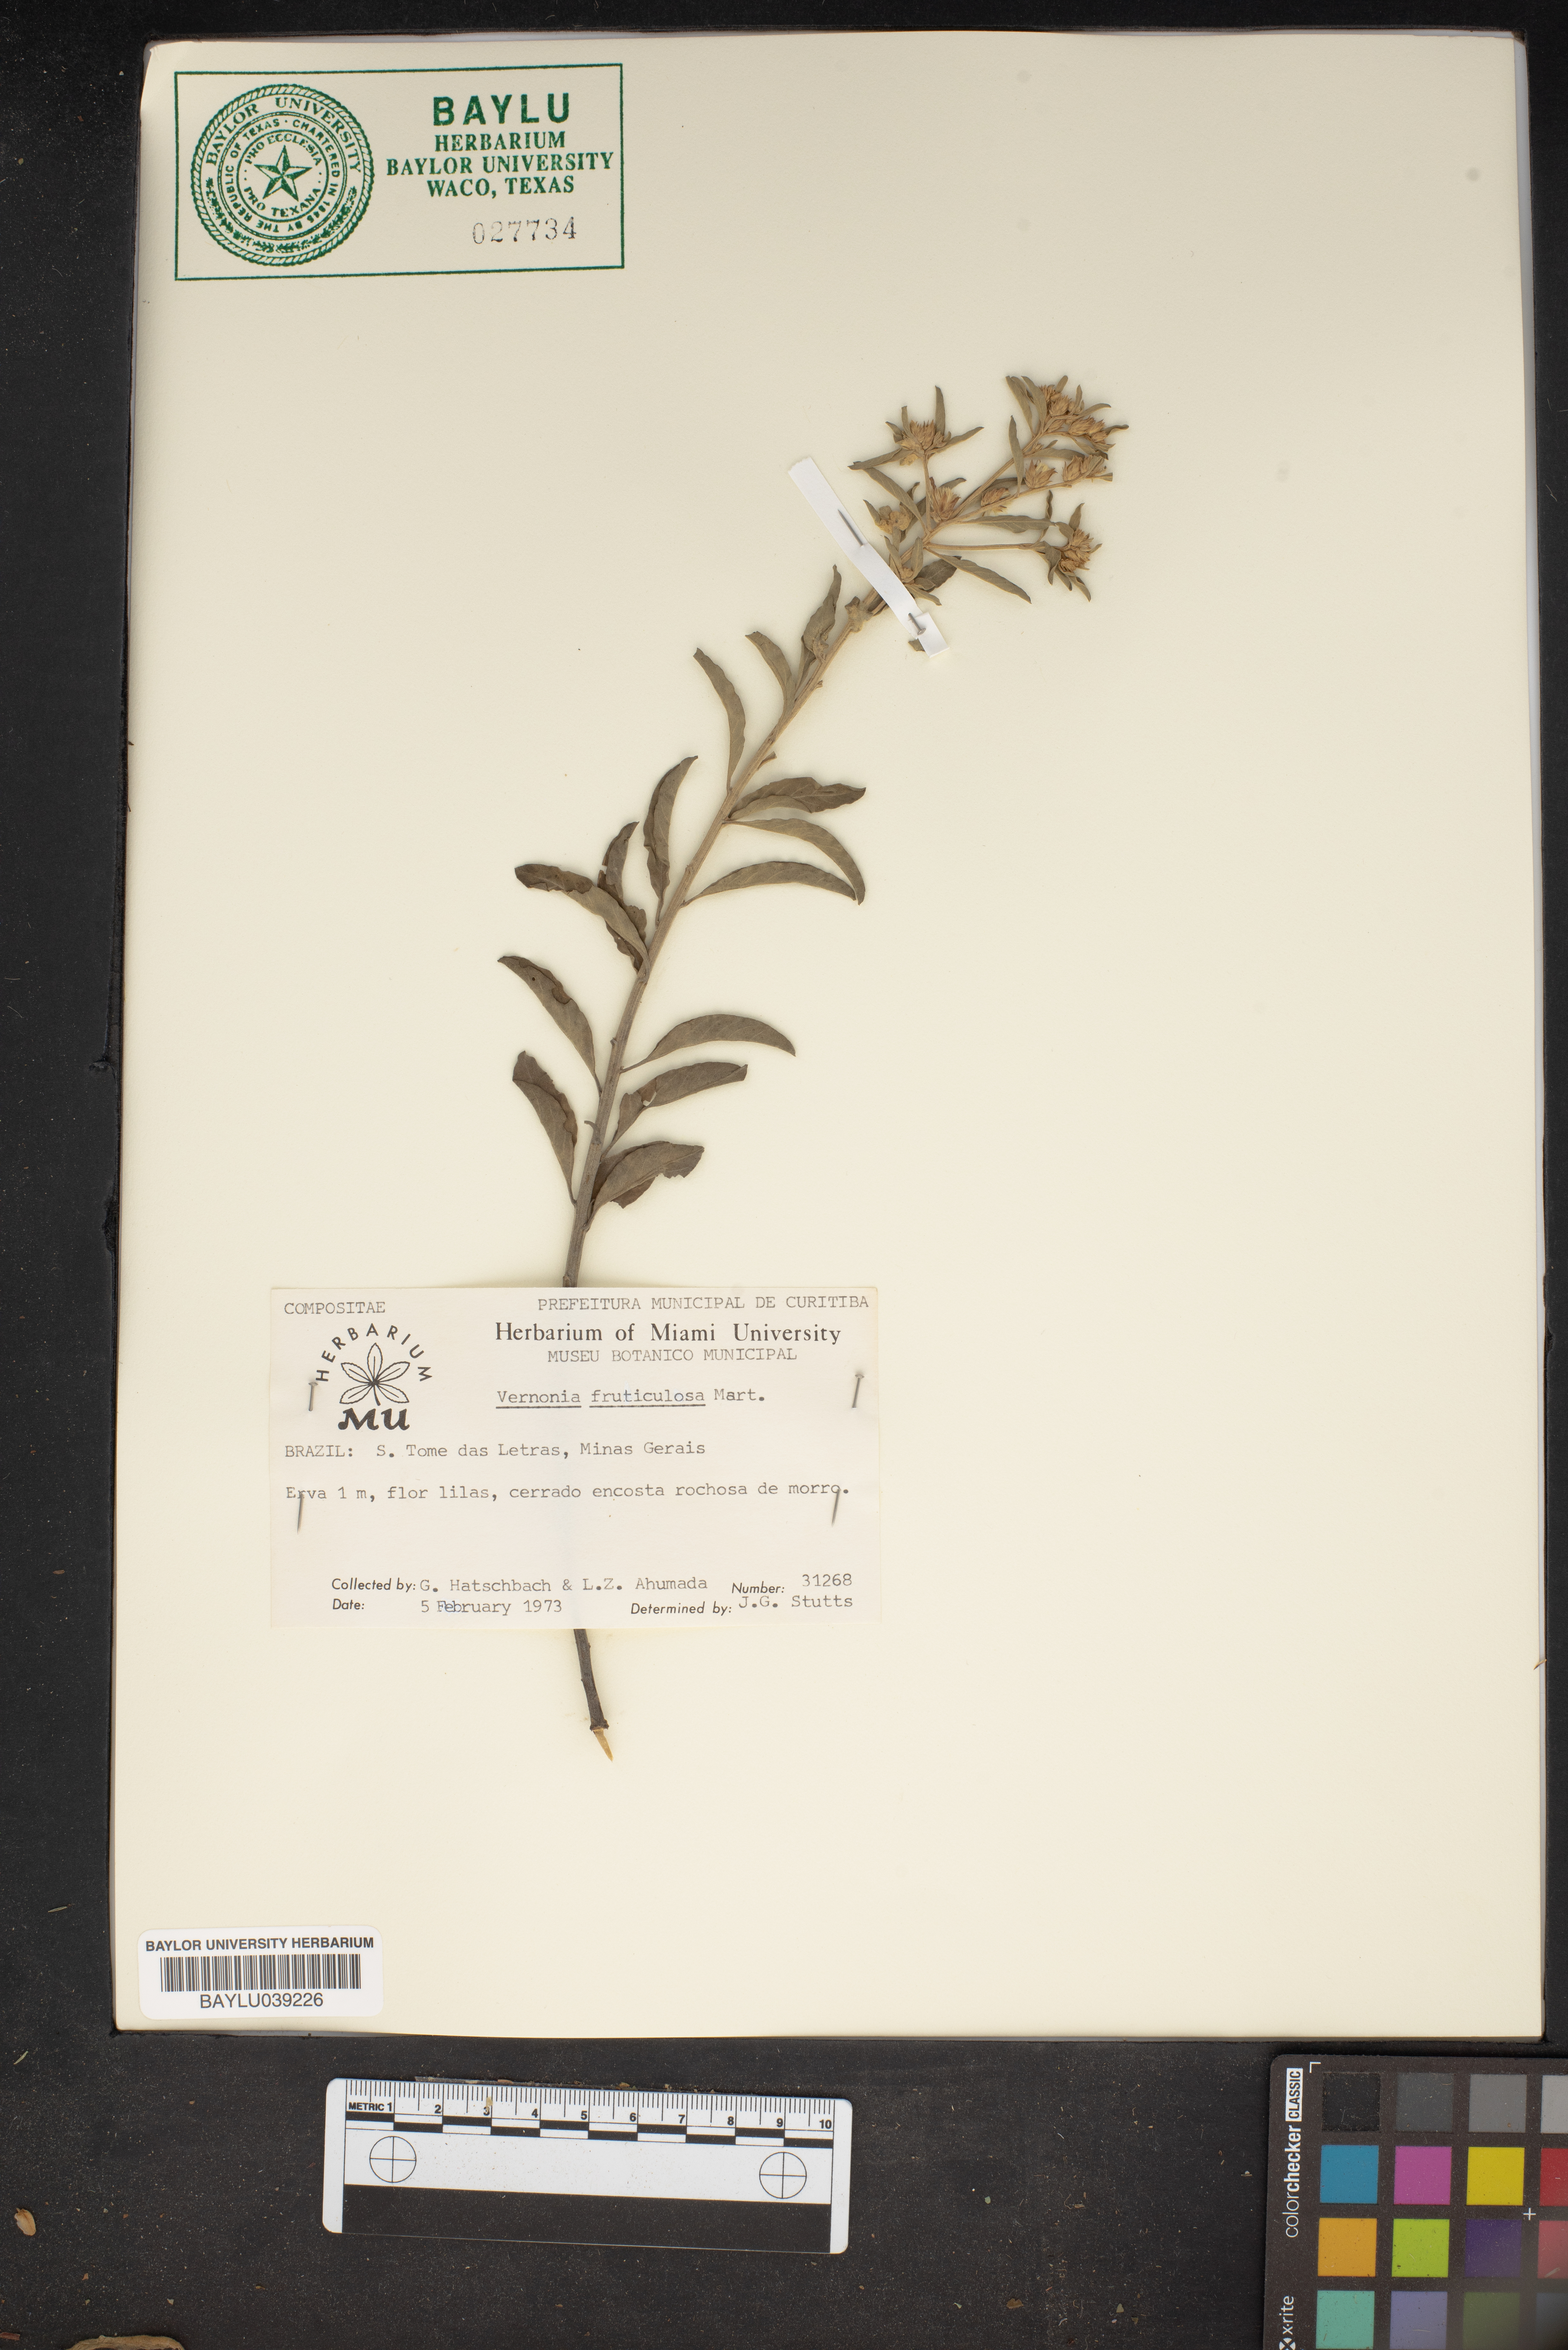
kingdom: Plantae
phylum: Tracheophyta
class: Magnoliopsida
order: Asterales
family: Asteraceae
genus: Lepidaploa
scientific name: Lepidaploa rufogrisea
